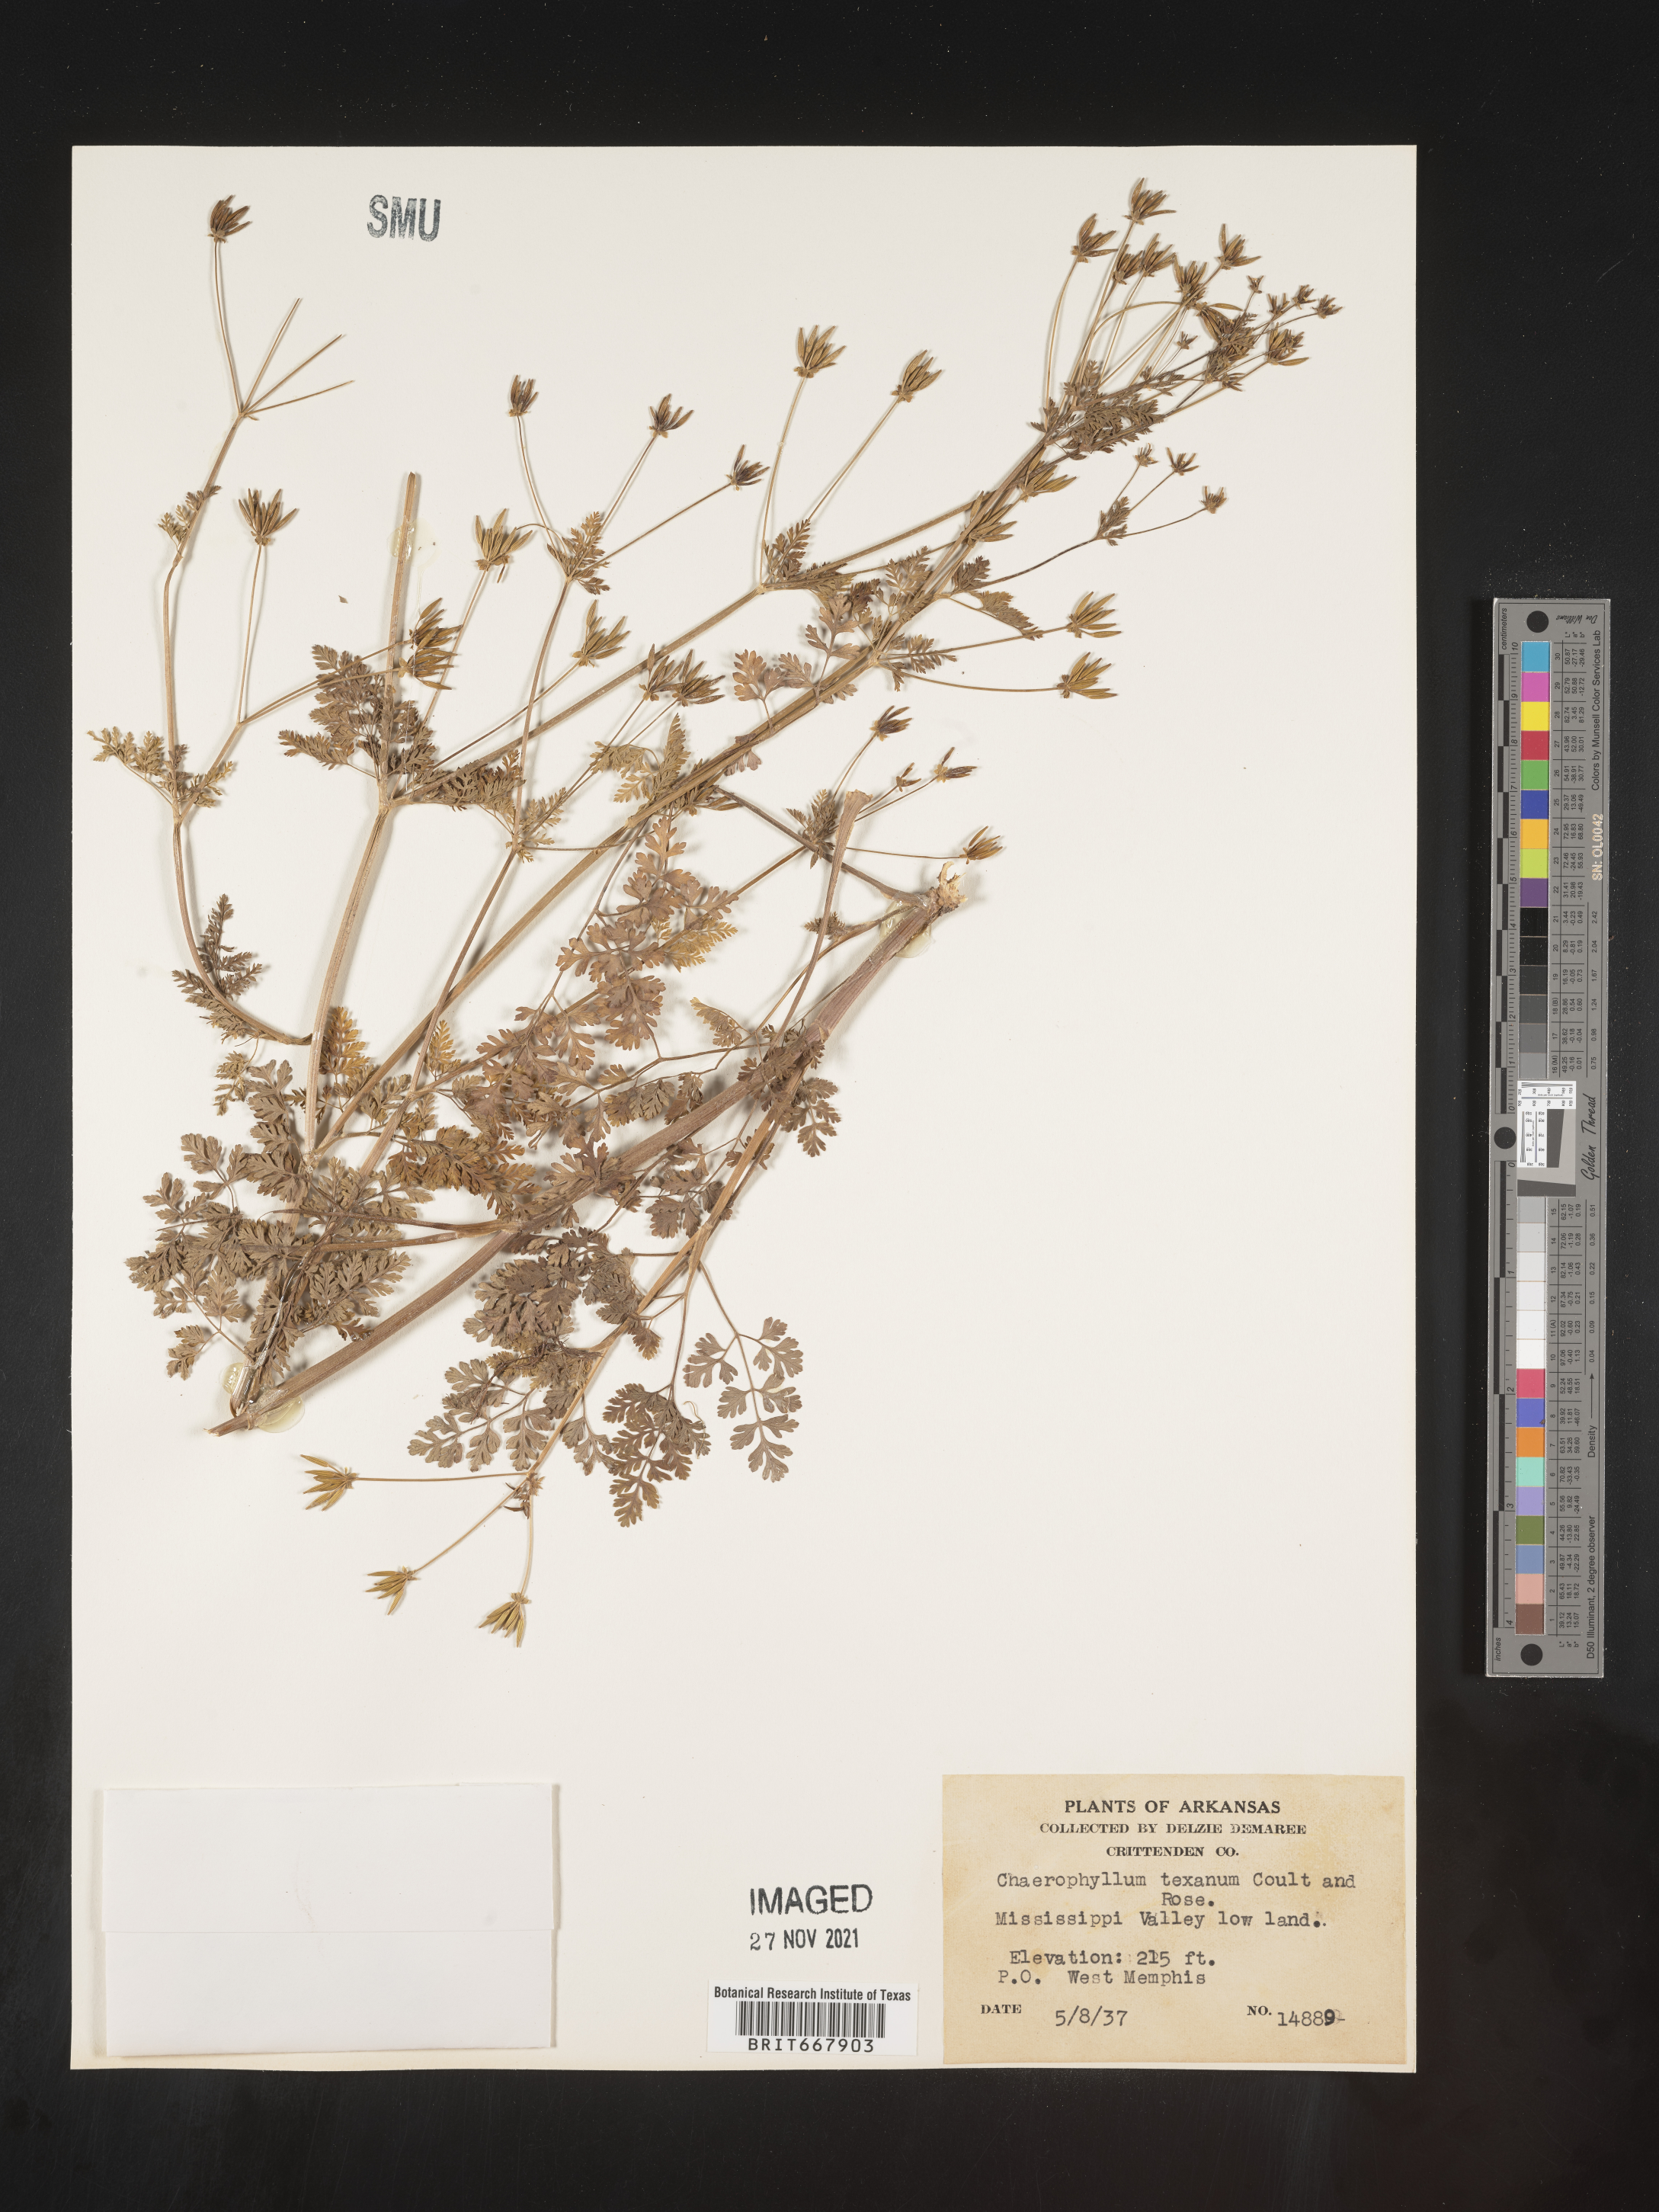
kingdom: Plantae
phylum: Tracheophyta
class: Magnoliopsida
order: Apiales
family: Apiaceae
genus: Chaerophyllum
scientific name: Chaerophyllum tainturieri
